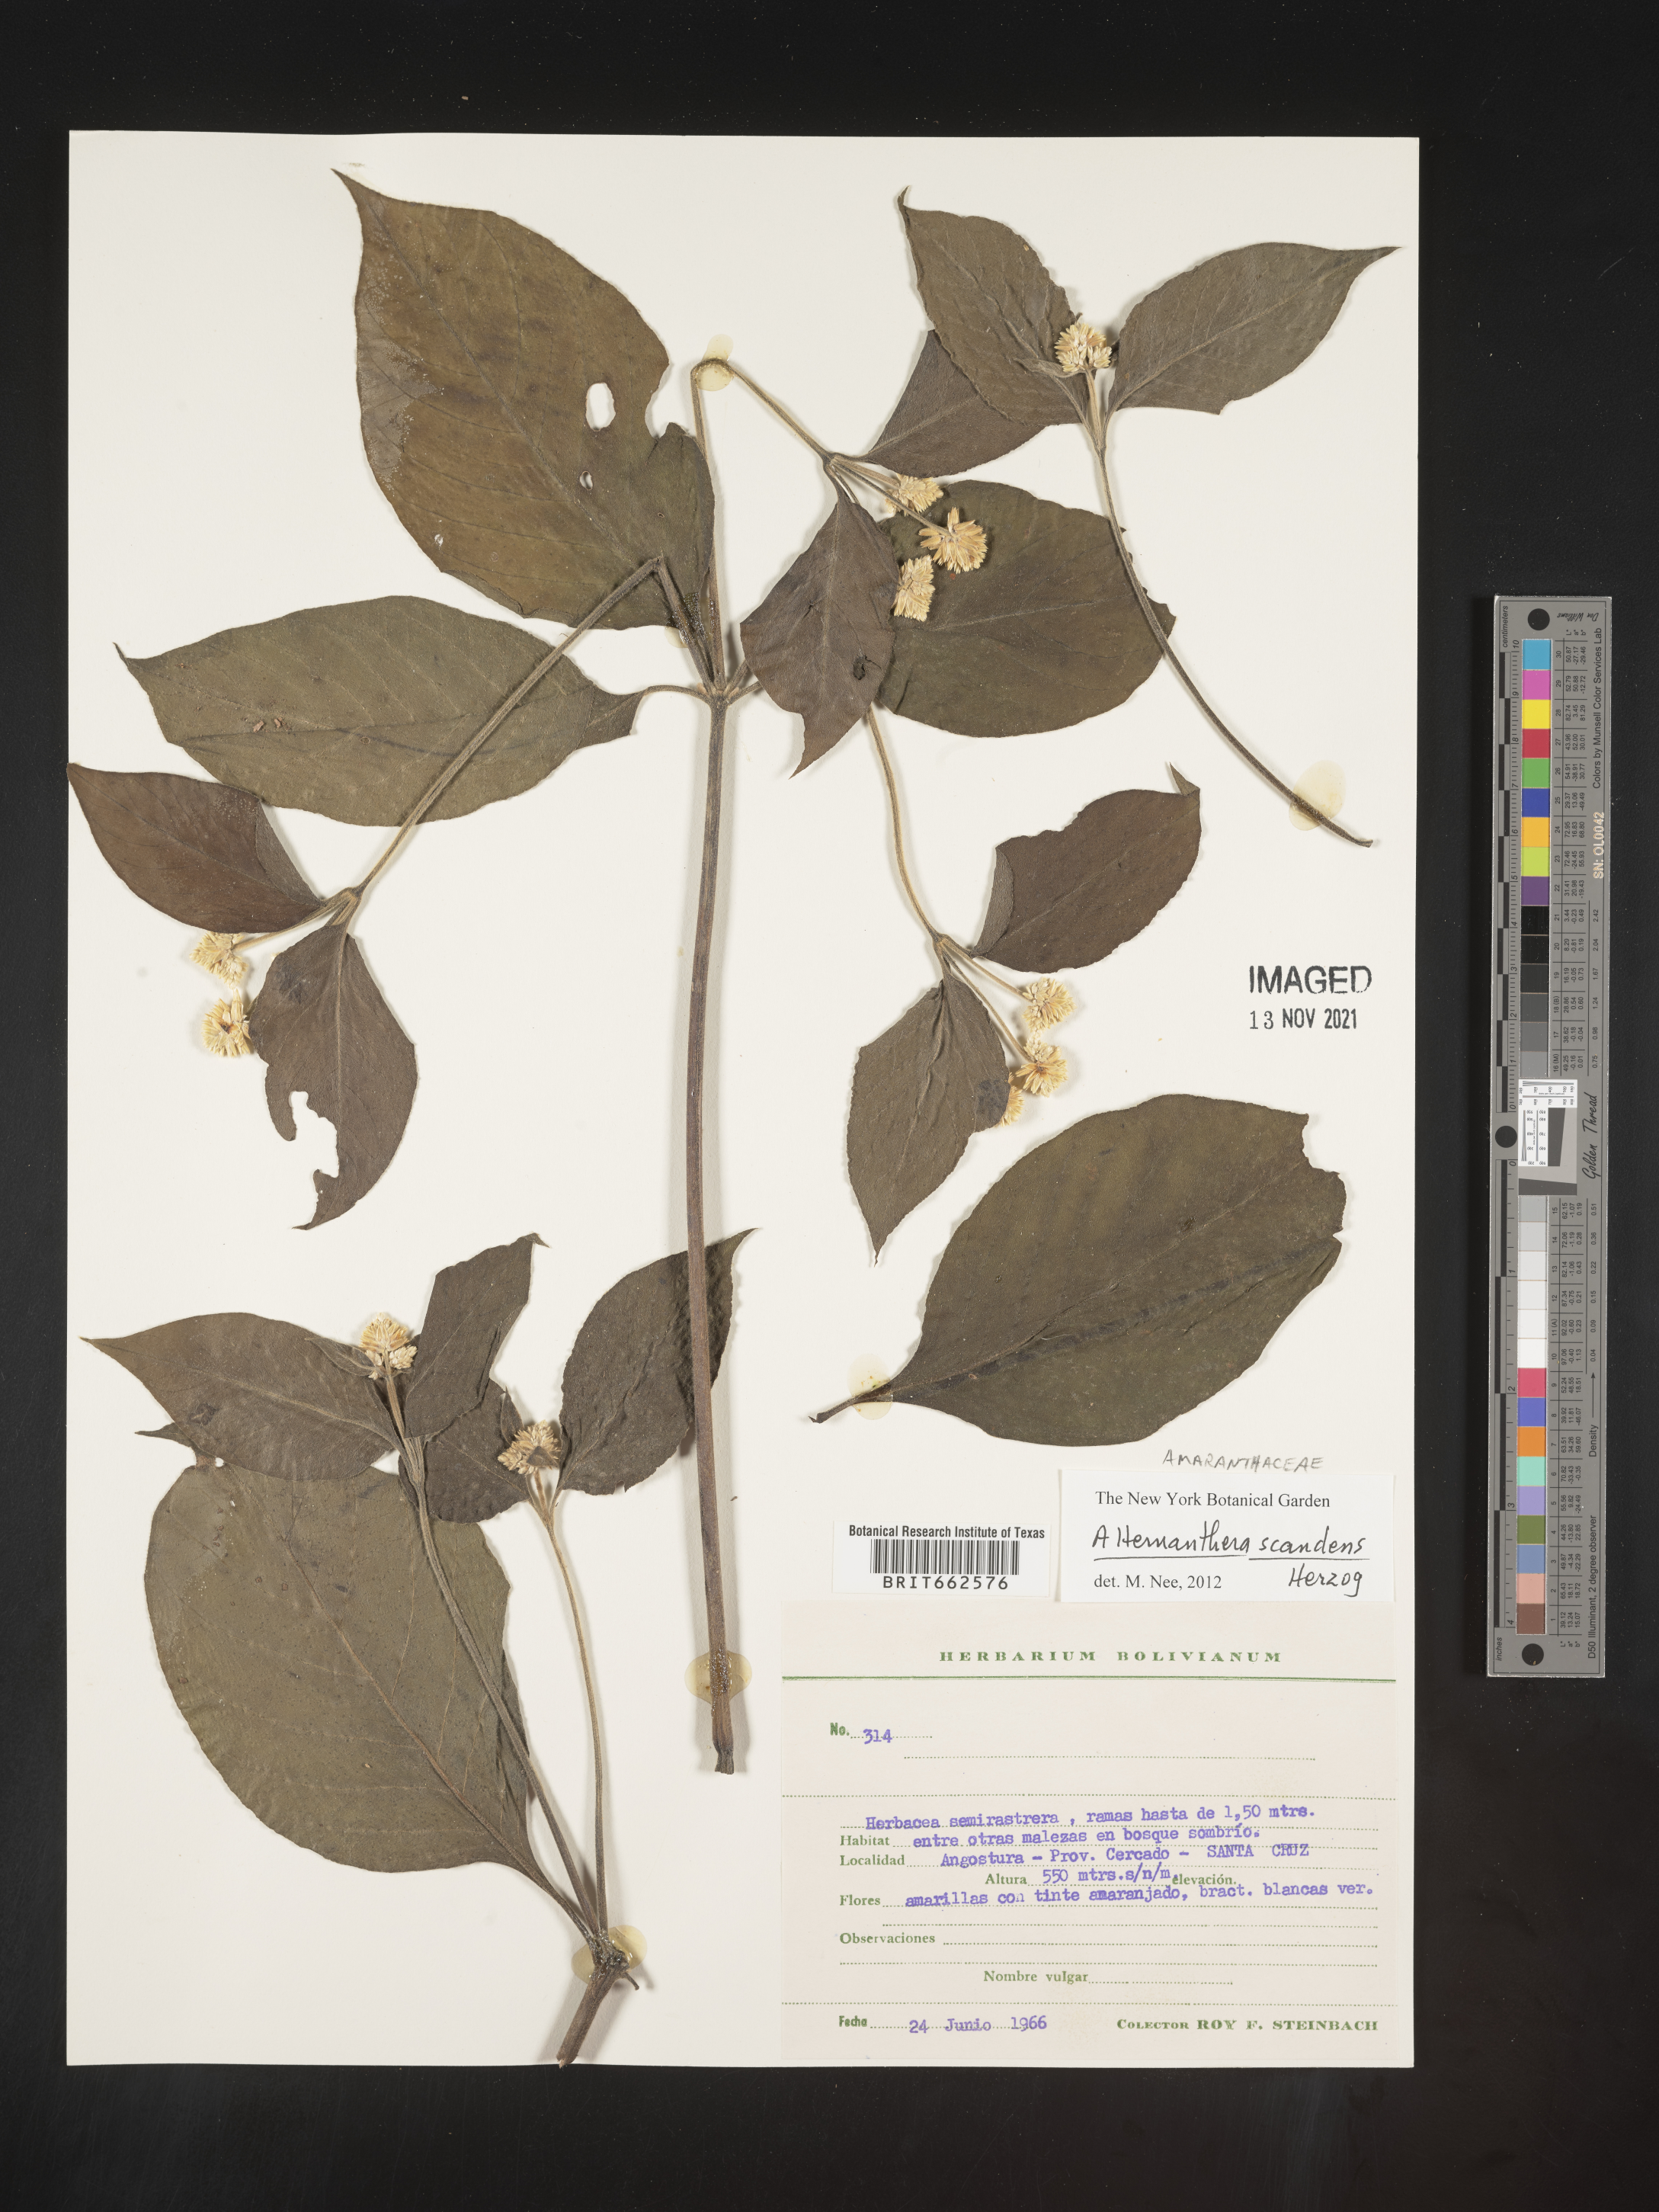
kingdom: Plantae
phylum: Tracheophyta
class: Magnoliopsida
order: Caryophyllales
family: Amaranthaceae
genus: Alternanthera
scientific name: Alternanthera
